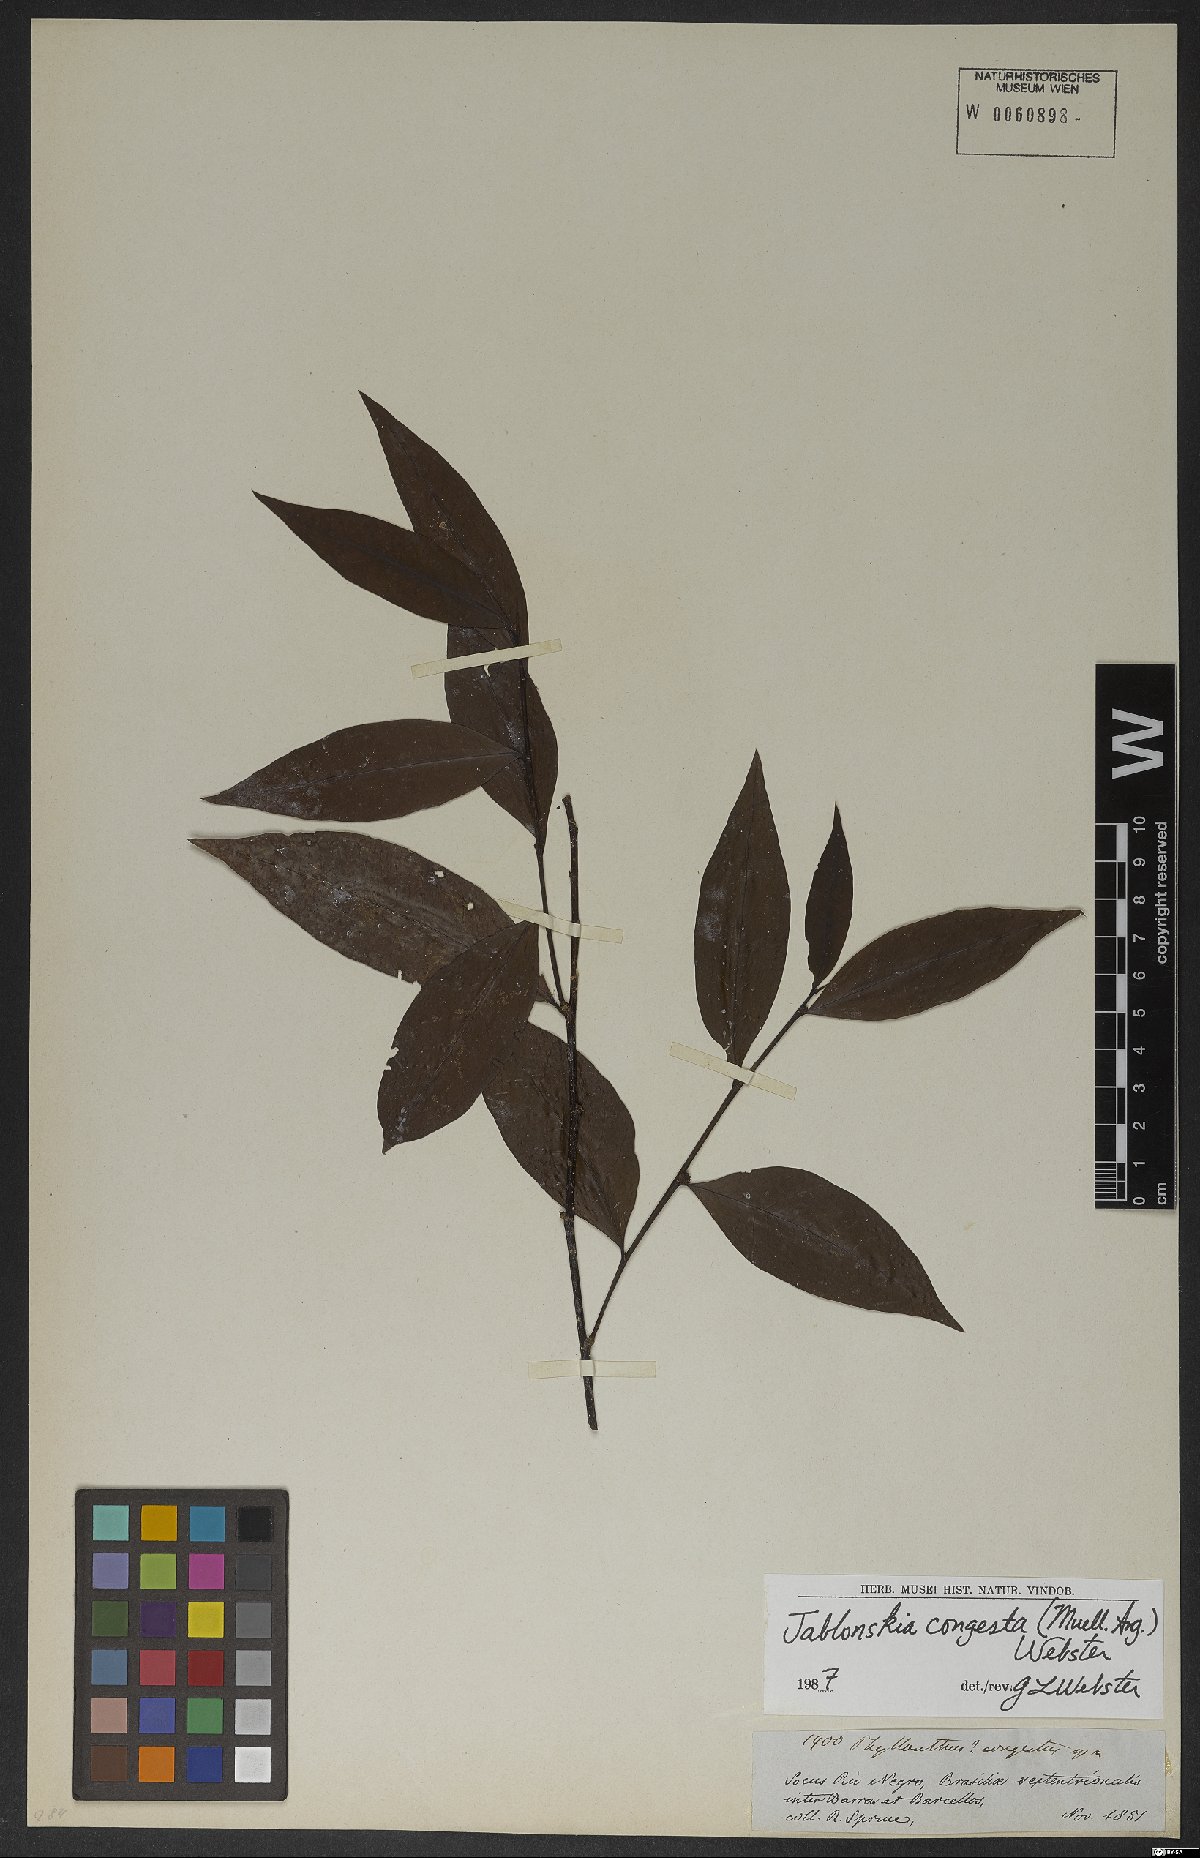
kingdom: Plantae
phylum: Tracheophyta
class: Magnoliopsida
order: Malpighiales
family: Phyllanthaceae
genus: Jablonskia
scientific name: Jablonskia congesta
